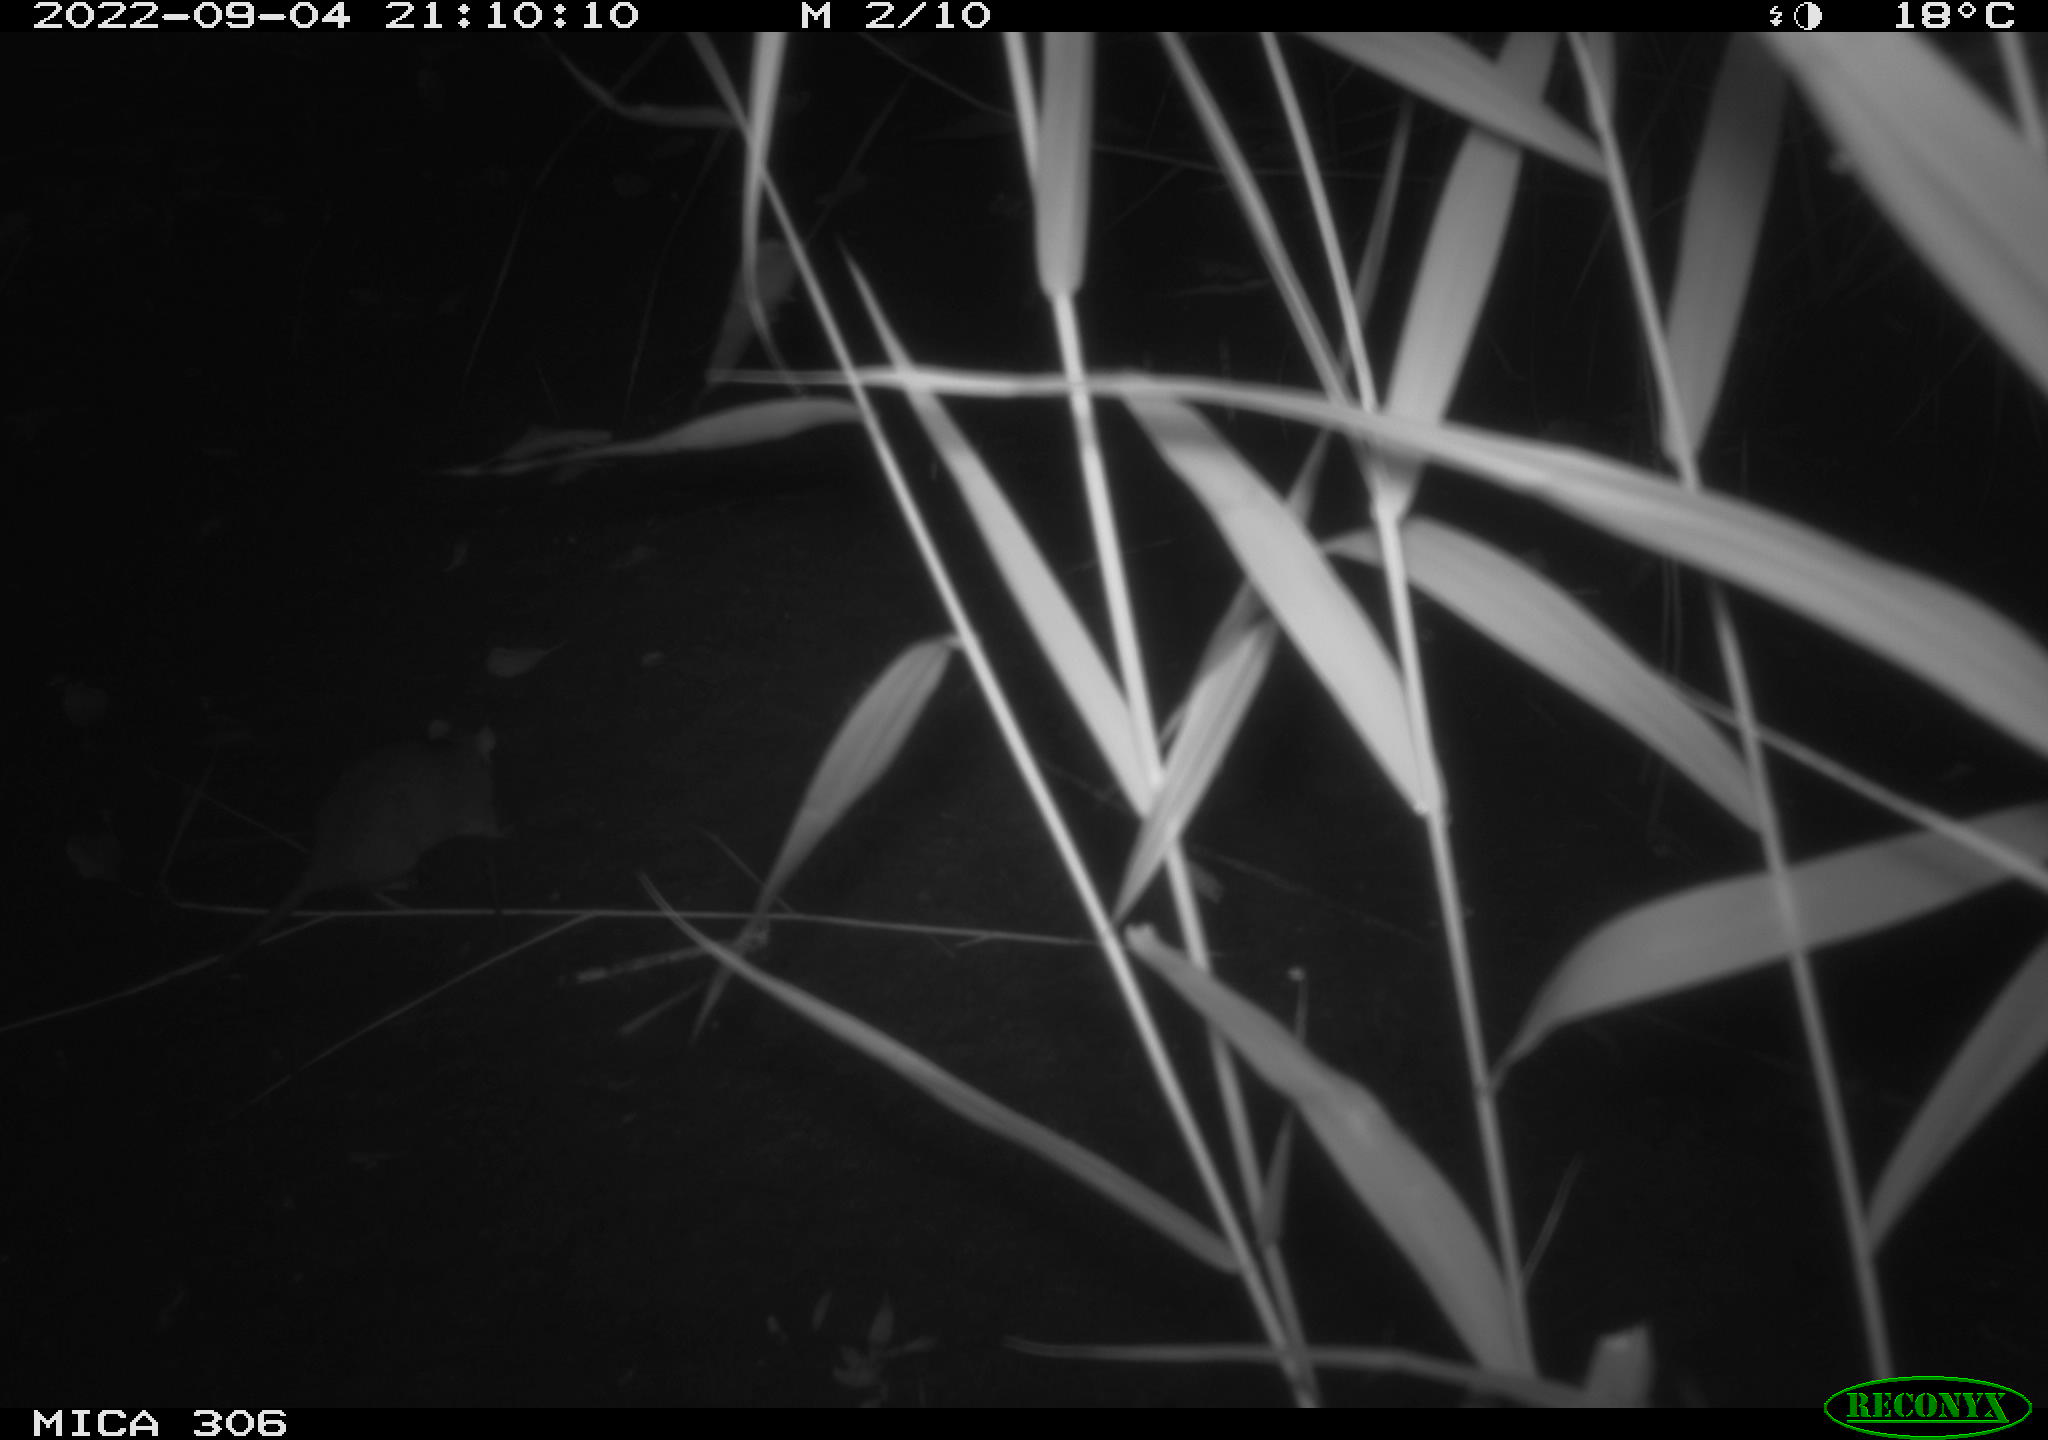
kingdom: Animalia
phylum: Chordata
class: Mammalia
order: Rodentia
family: Muridae
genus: Rattus
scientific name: Rattus norvegicus
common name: Brown rat
